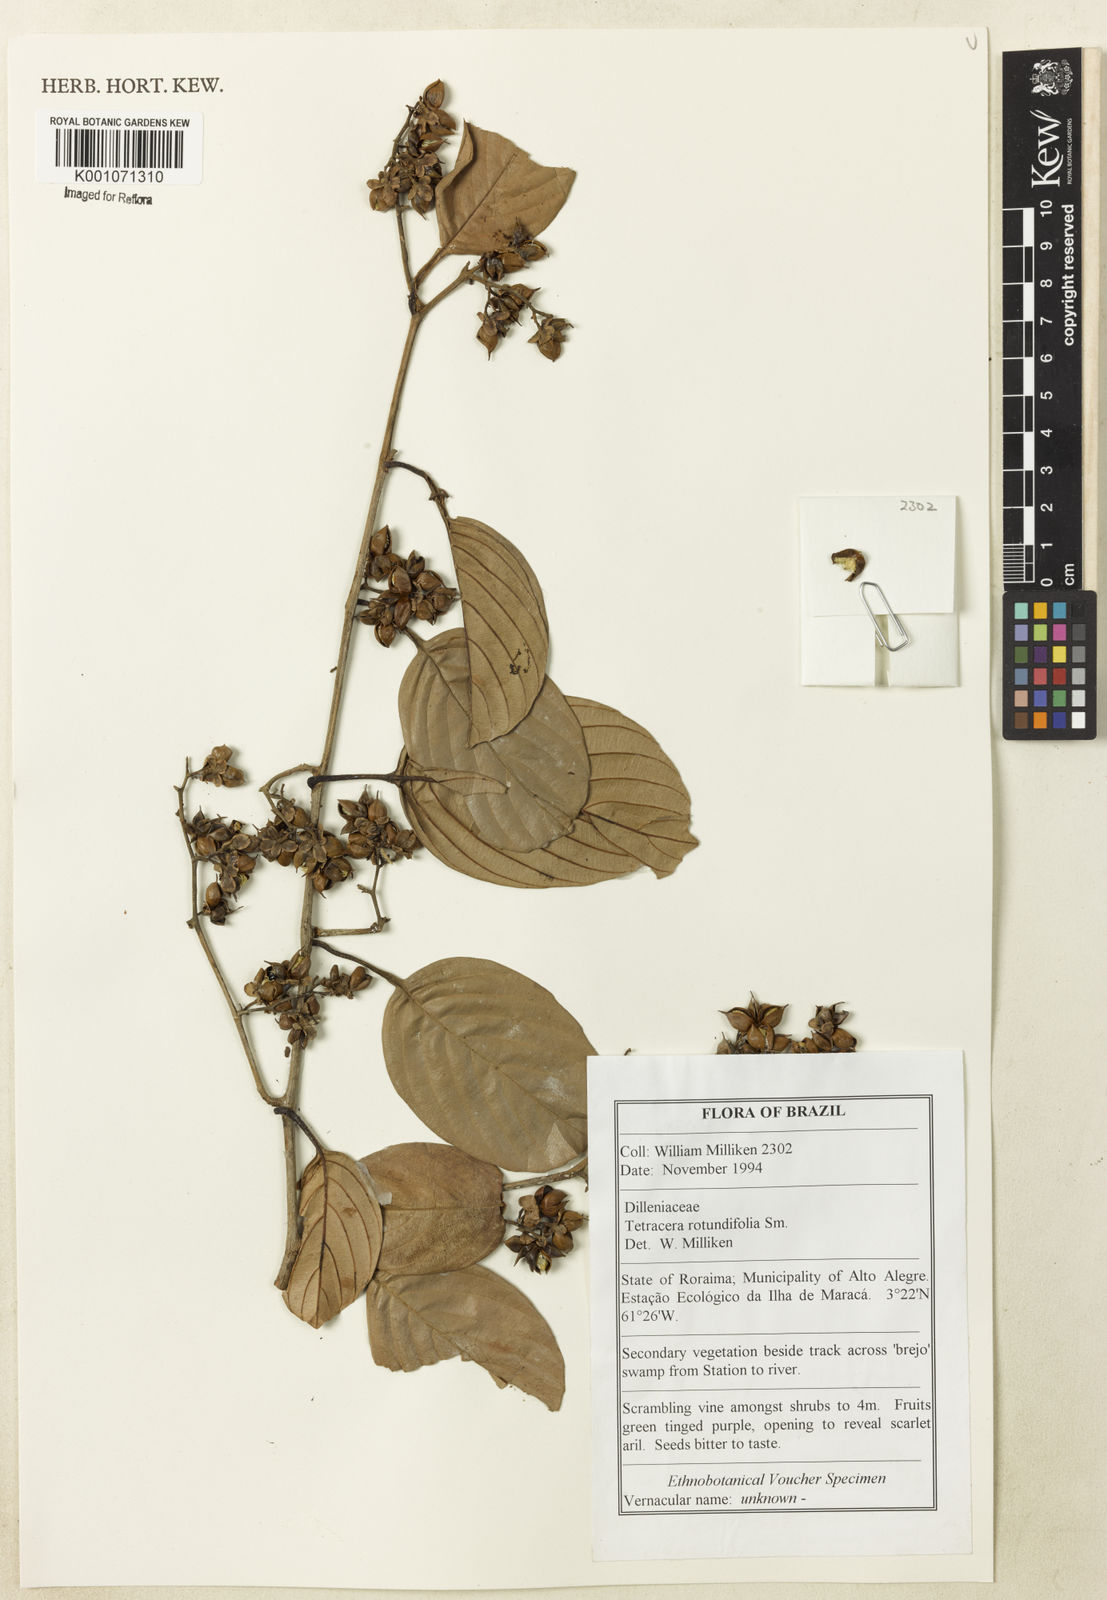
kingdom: Plantae
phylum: Tracheophyta
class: Magnoliopsida
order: Dilleniales
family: Dilleniaceae
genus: Tetracera
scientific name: Tetracera rotundifolia
